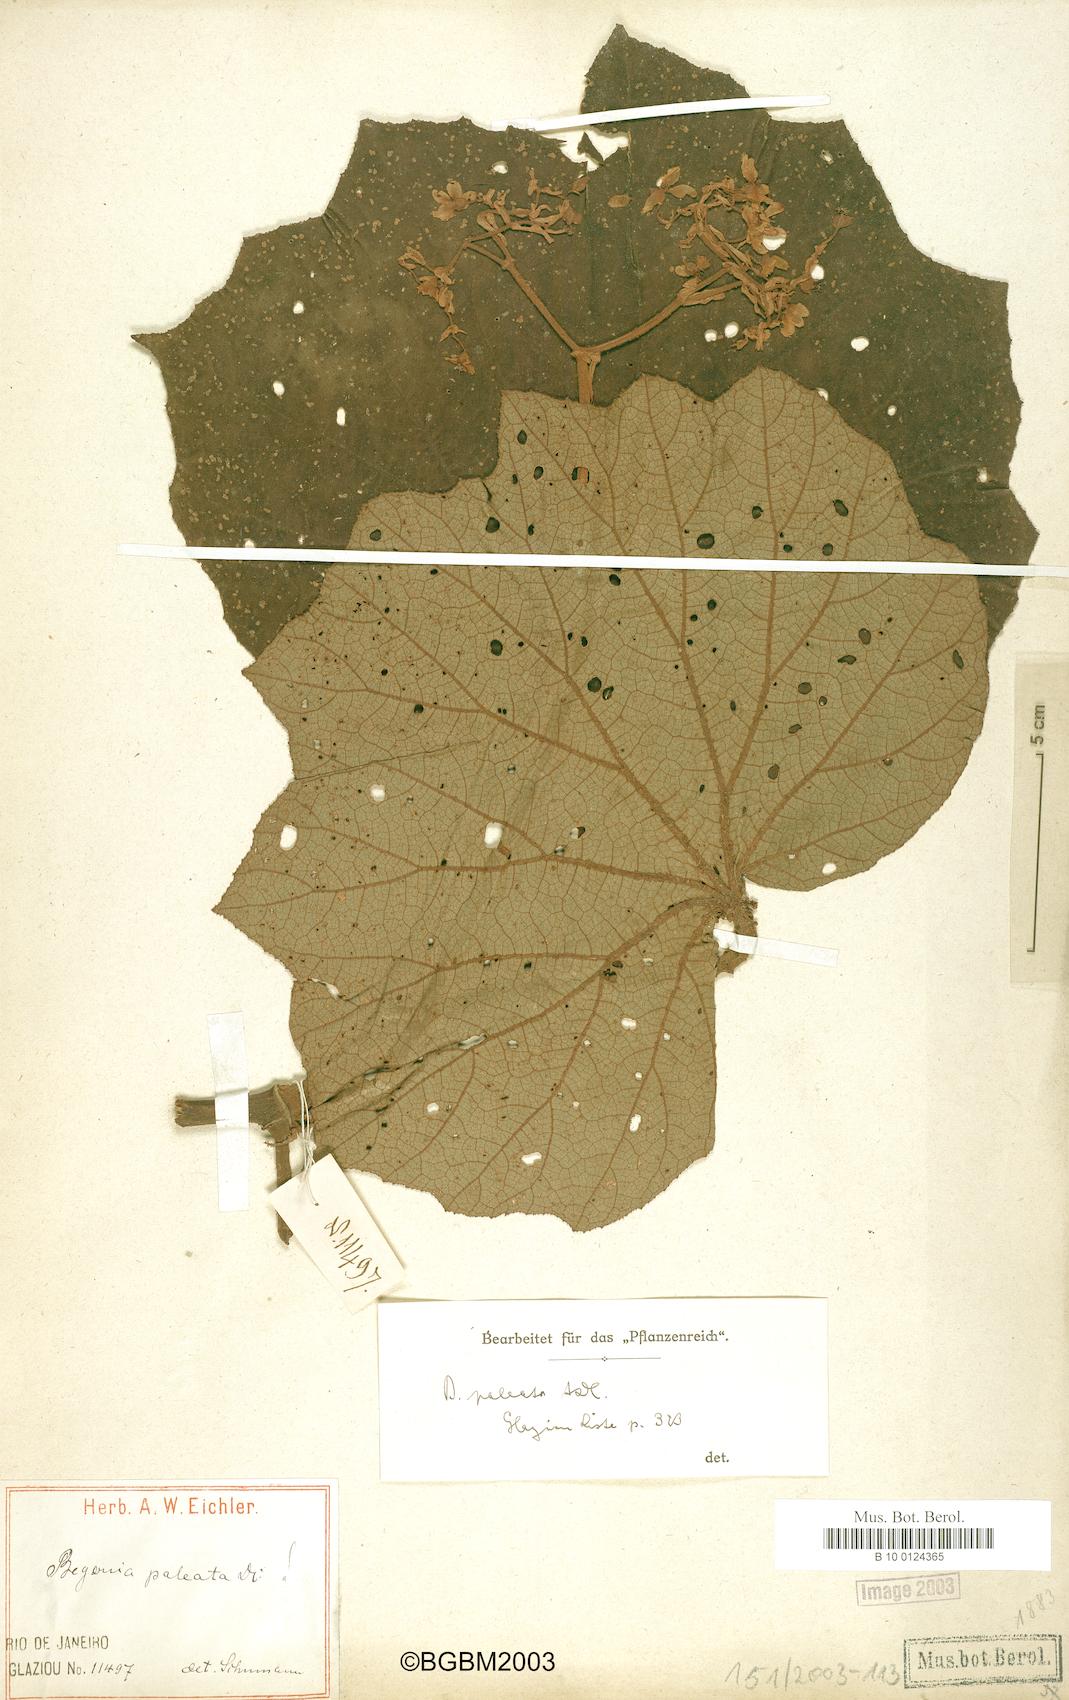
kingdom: Plantae
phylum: Tracheophyta
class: Magnoliopsida
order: Cucurbitales
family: Begoniaceae
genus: Begonia
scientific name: Begonia paleata
